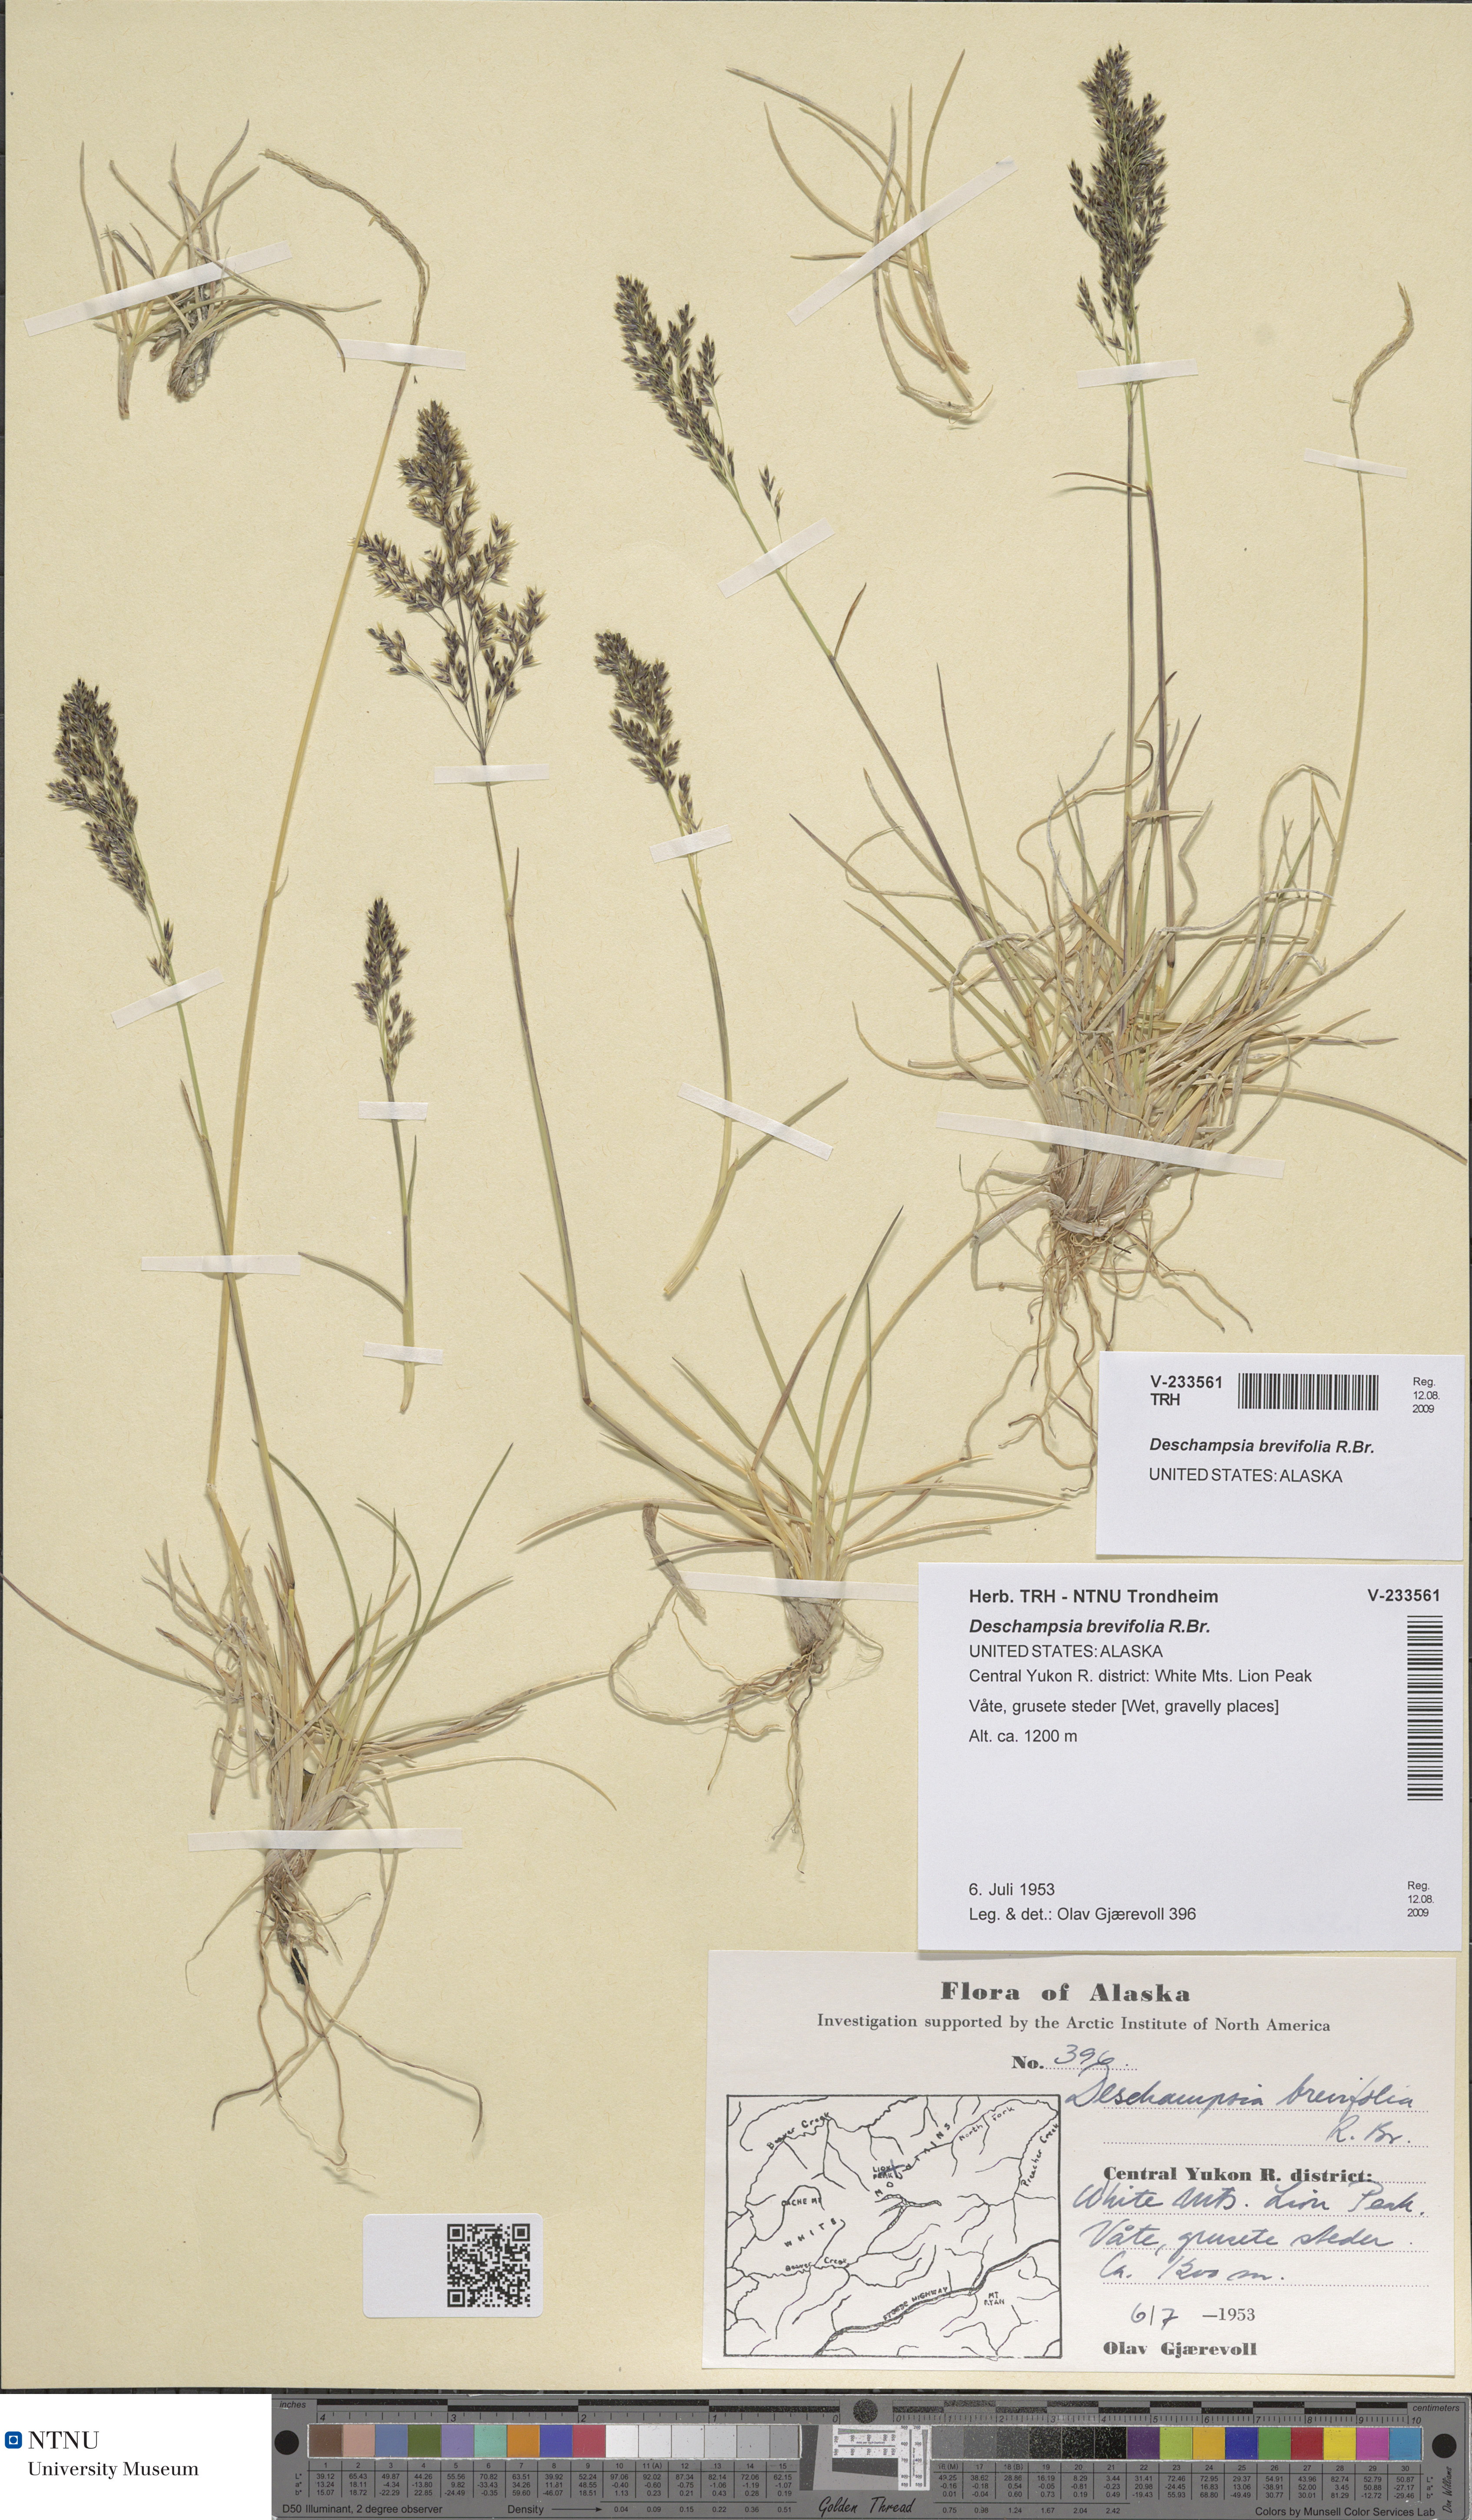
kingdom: Plantae
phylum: Tracheophyta
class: Liliopsida
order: Poales
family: Poaceae
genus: Deschampsia
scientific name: Deschampsia cespitosa
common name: Tufted hair-grass
